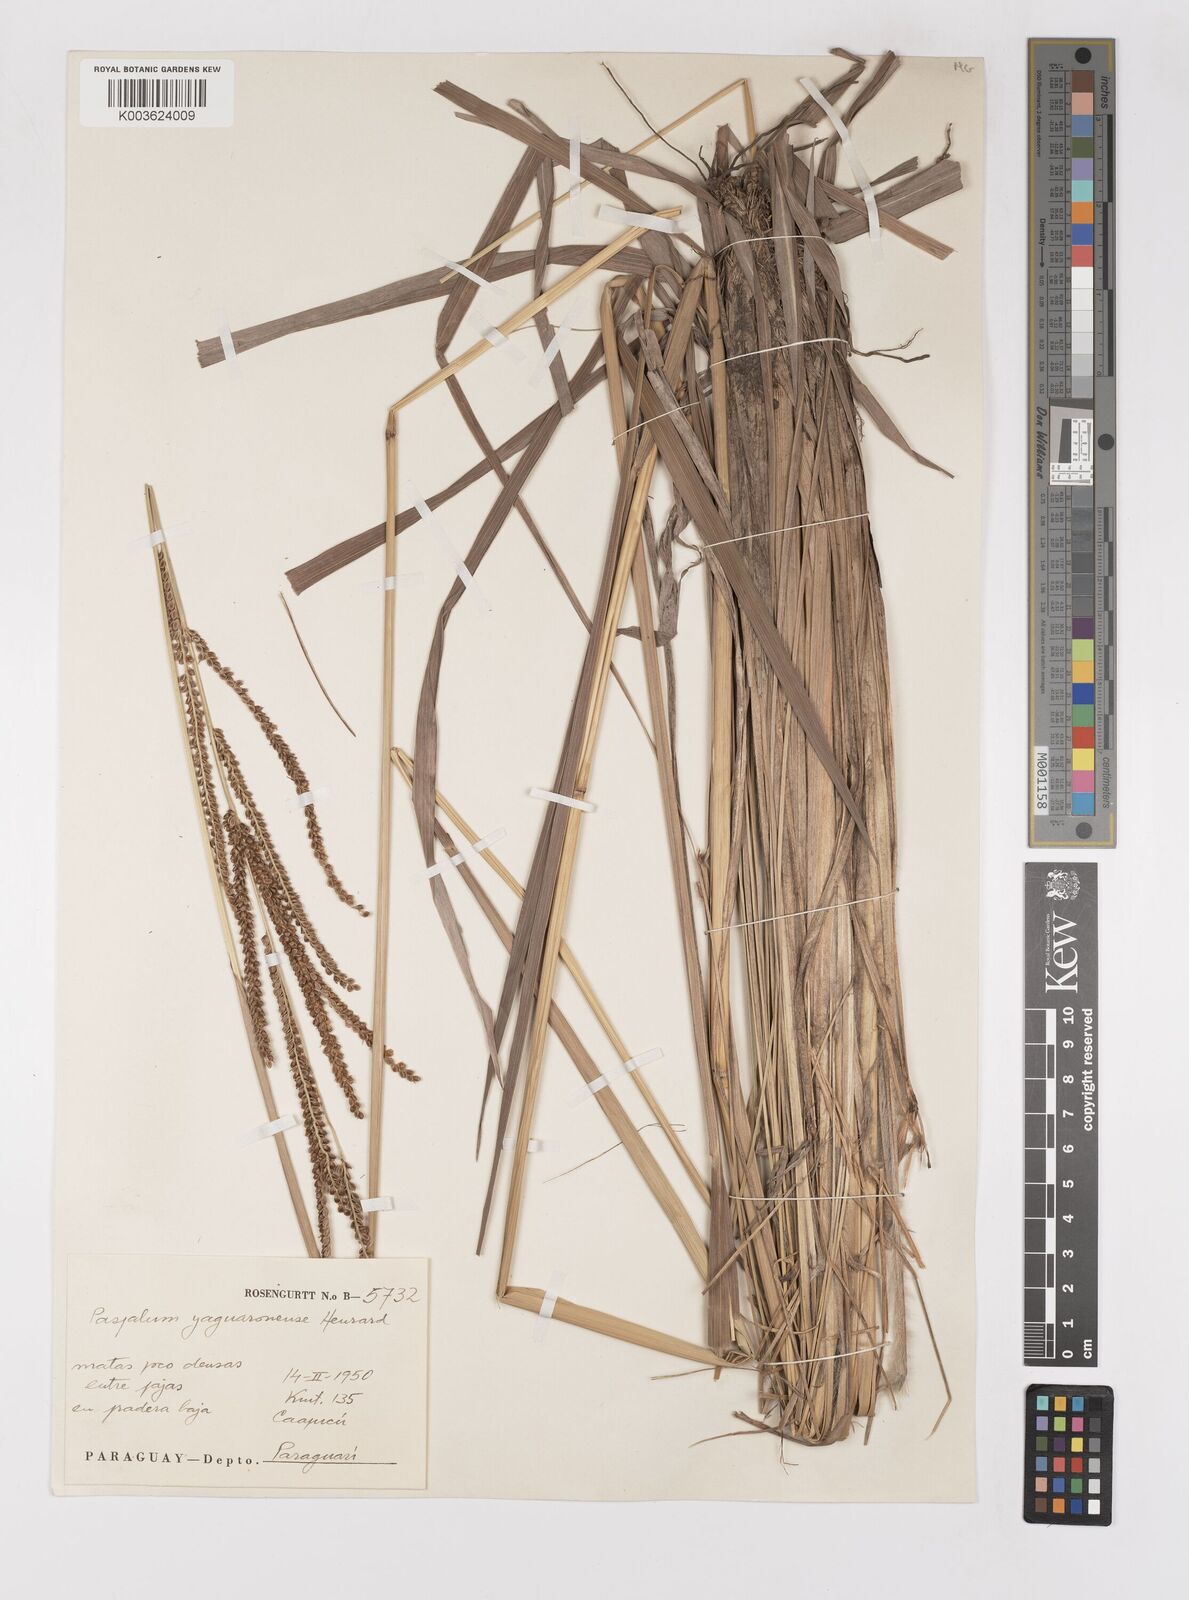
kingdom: Plantae
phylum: Tracheophyta
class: Liliopsida
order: Poales
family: Poaceae
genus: Paspalum
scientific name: Paspalum glaucescens
